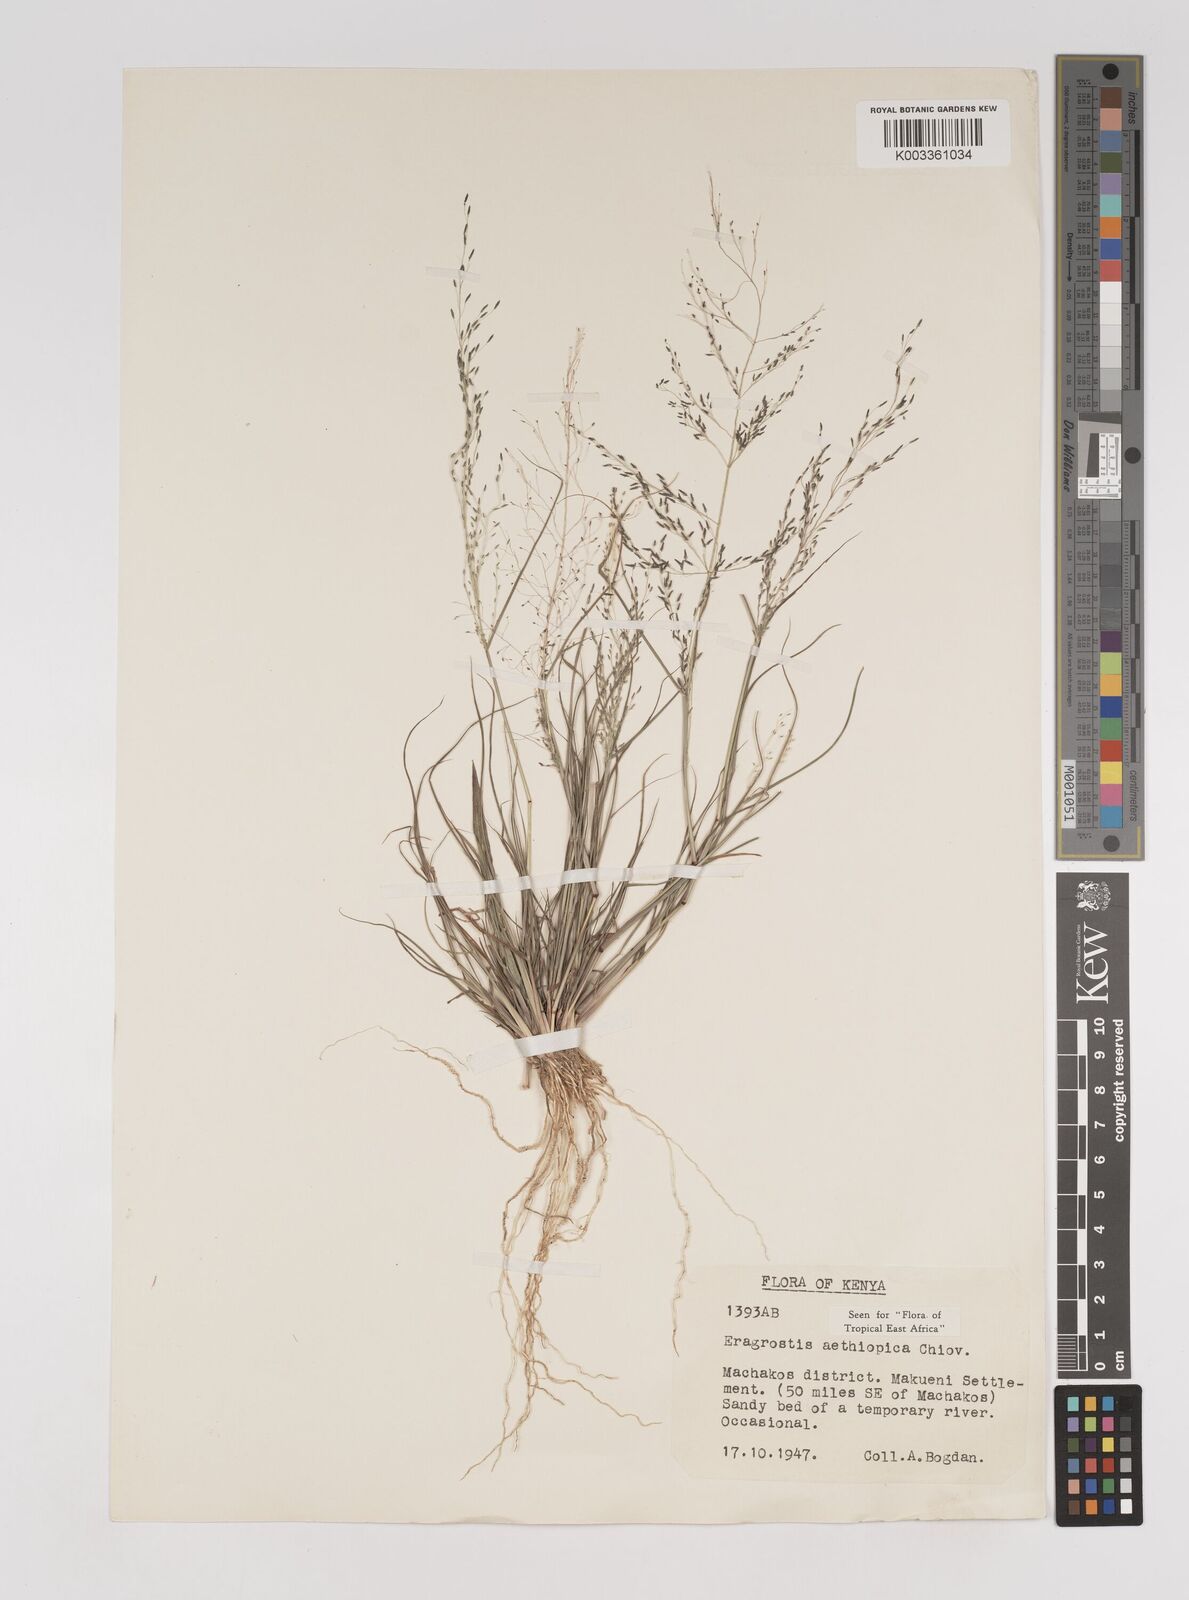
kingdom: Plantae
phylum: Tracheophyta
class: Liliopsida
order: Poales
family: Poaceae
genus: Eragrostis
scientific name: Eragrostis aethiopica
